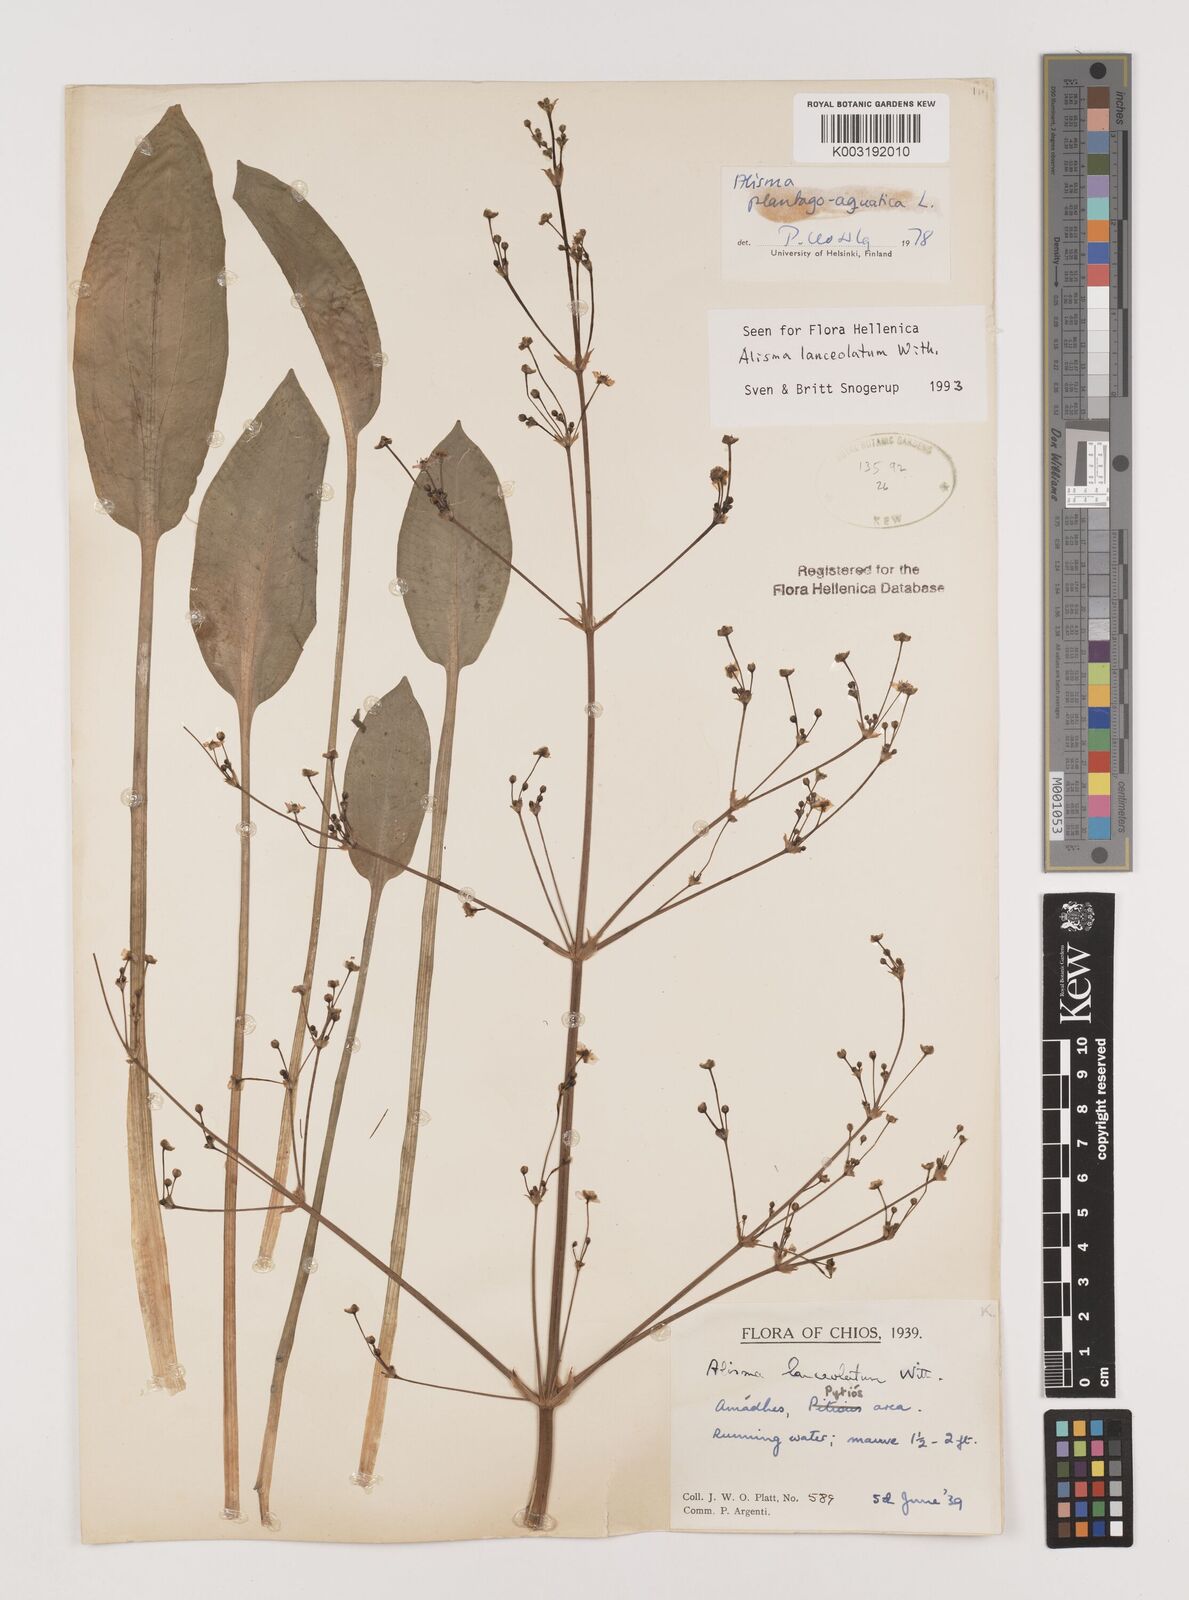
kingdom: Plantae
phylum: Tracheophyta
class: Liliopsida
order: Alismatales
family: Alismataceae
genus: Alisma
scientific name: Alisma lanceolatum
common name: Narrow-leaved water-plantain
